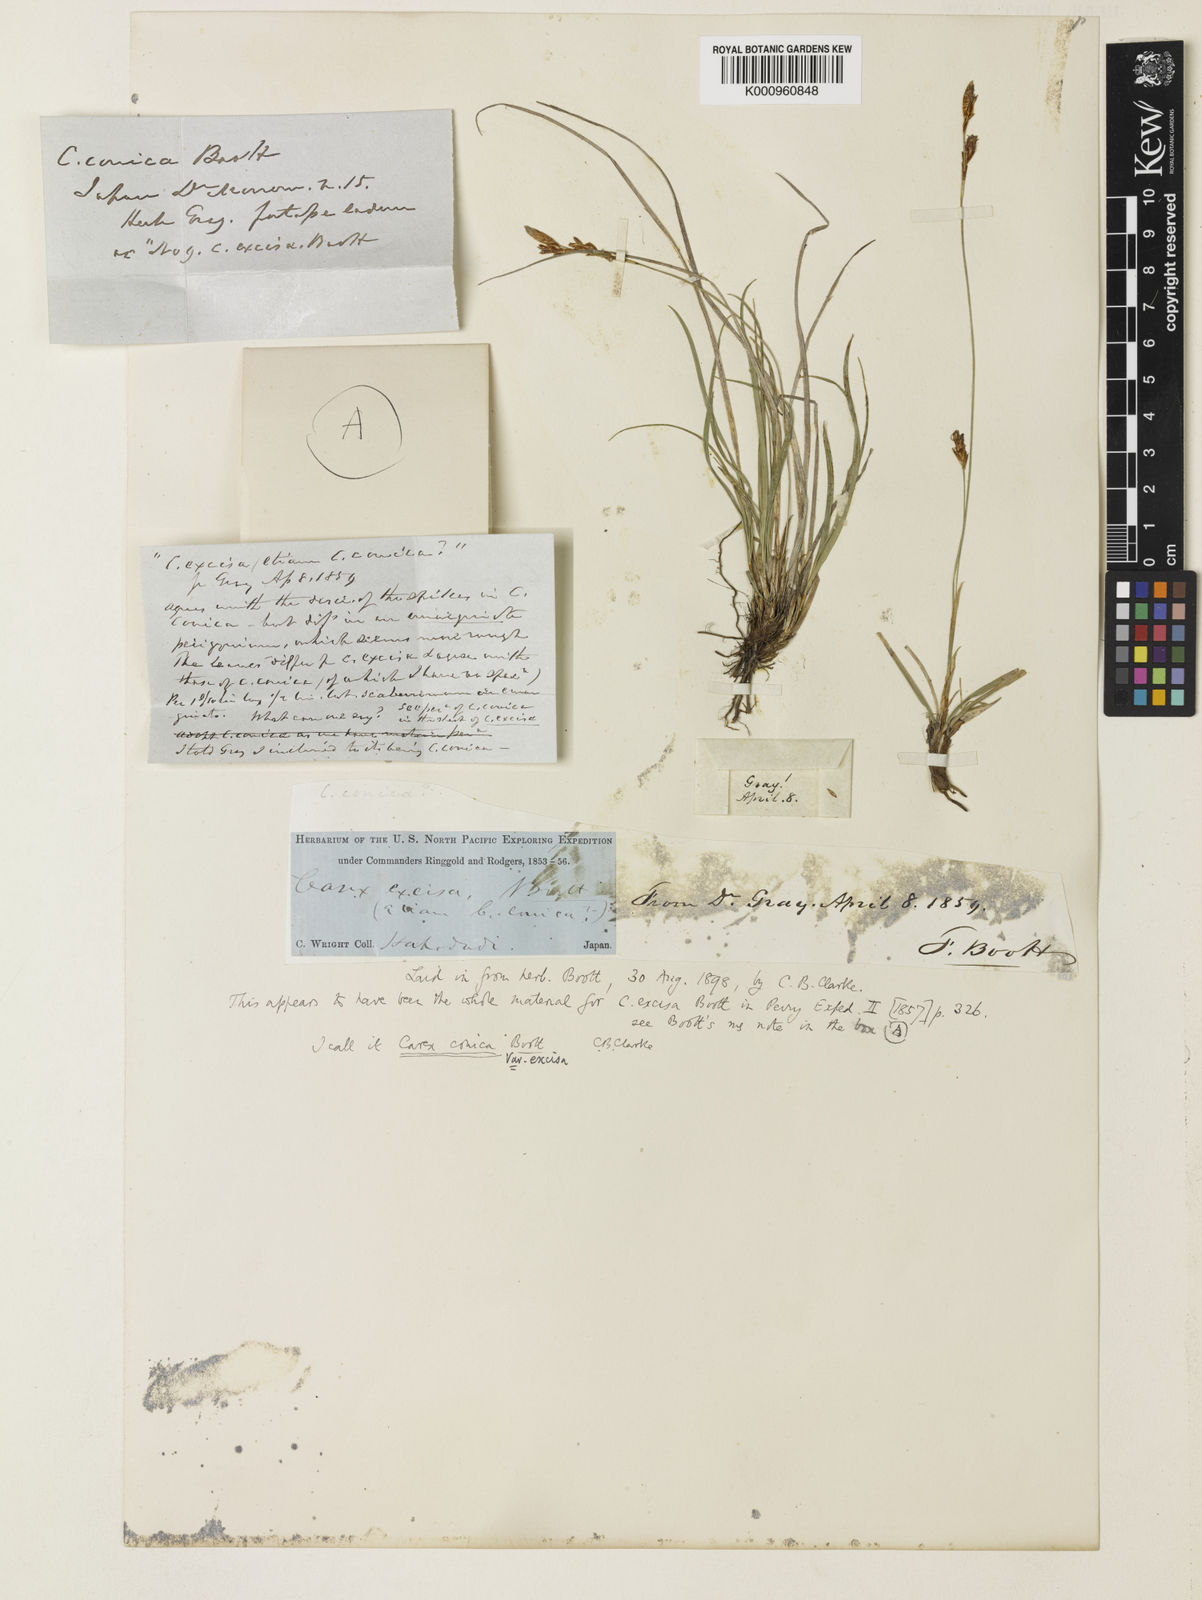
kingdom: Plantae
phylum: Tracheophyta
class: Liliopsida
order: Poales
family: Cyperaceae
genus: Carex
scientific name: Carex conica
